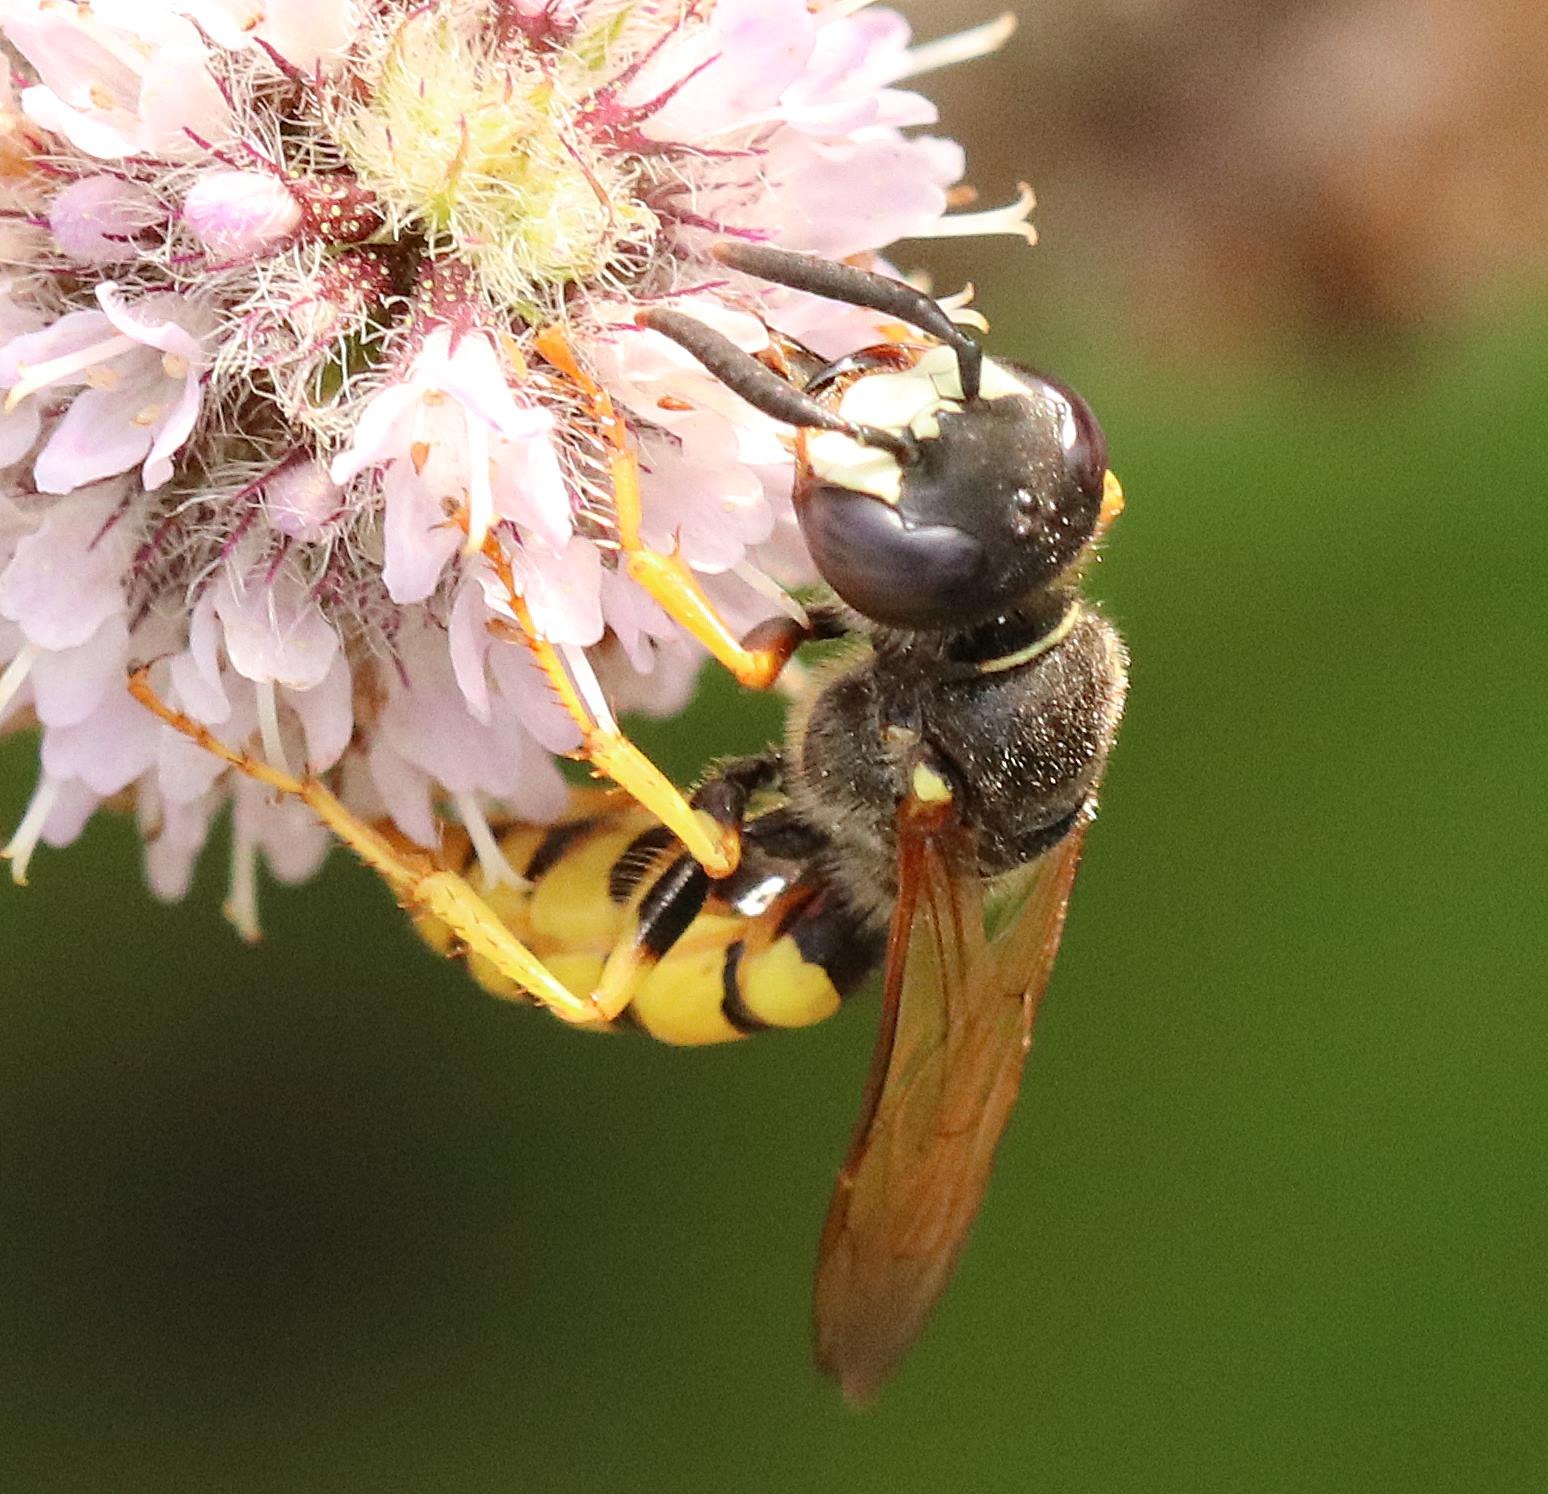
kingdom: Animalia
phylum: Arthropoda
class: Insecta
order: Hymenoptera
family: Crabronidae
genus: Philanthus
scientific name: Philanthus triangulum
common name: Biulv
